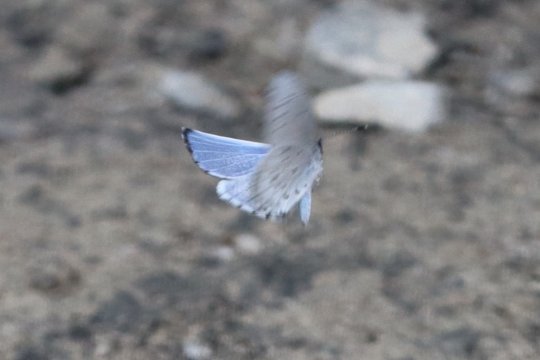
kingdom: Animalia
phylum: Arthropoda
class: Insecta
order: Lepidoptera
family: Lycaenidae
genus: Cyaniris
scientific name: Cyaniris neglecta
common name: Summer Azure
